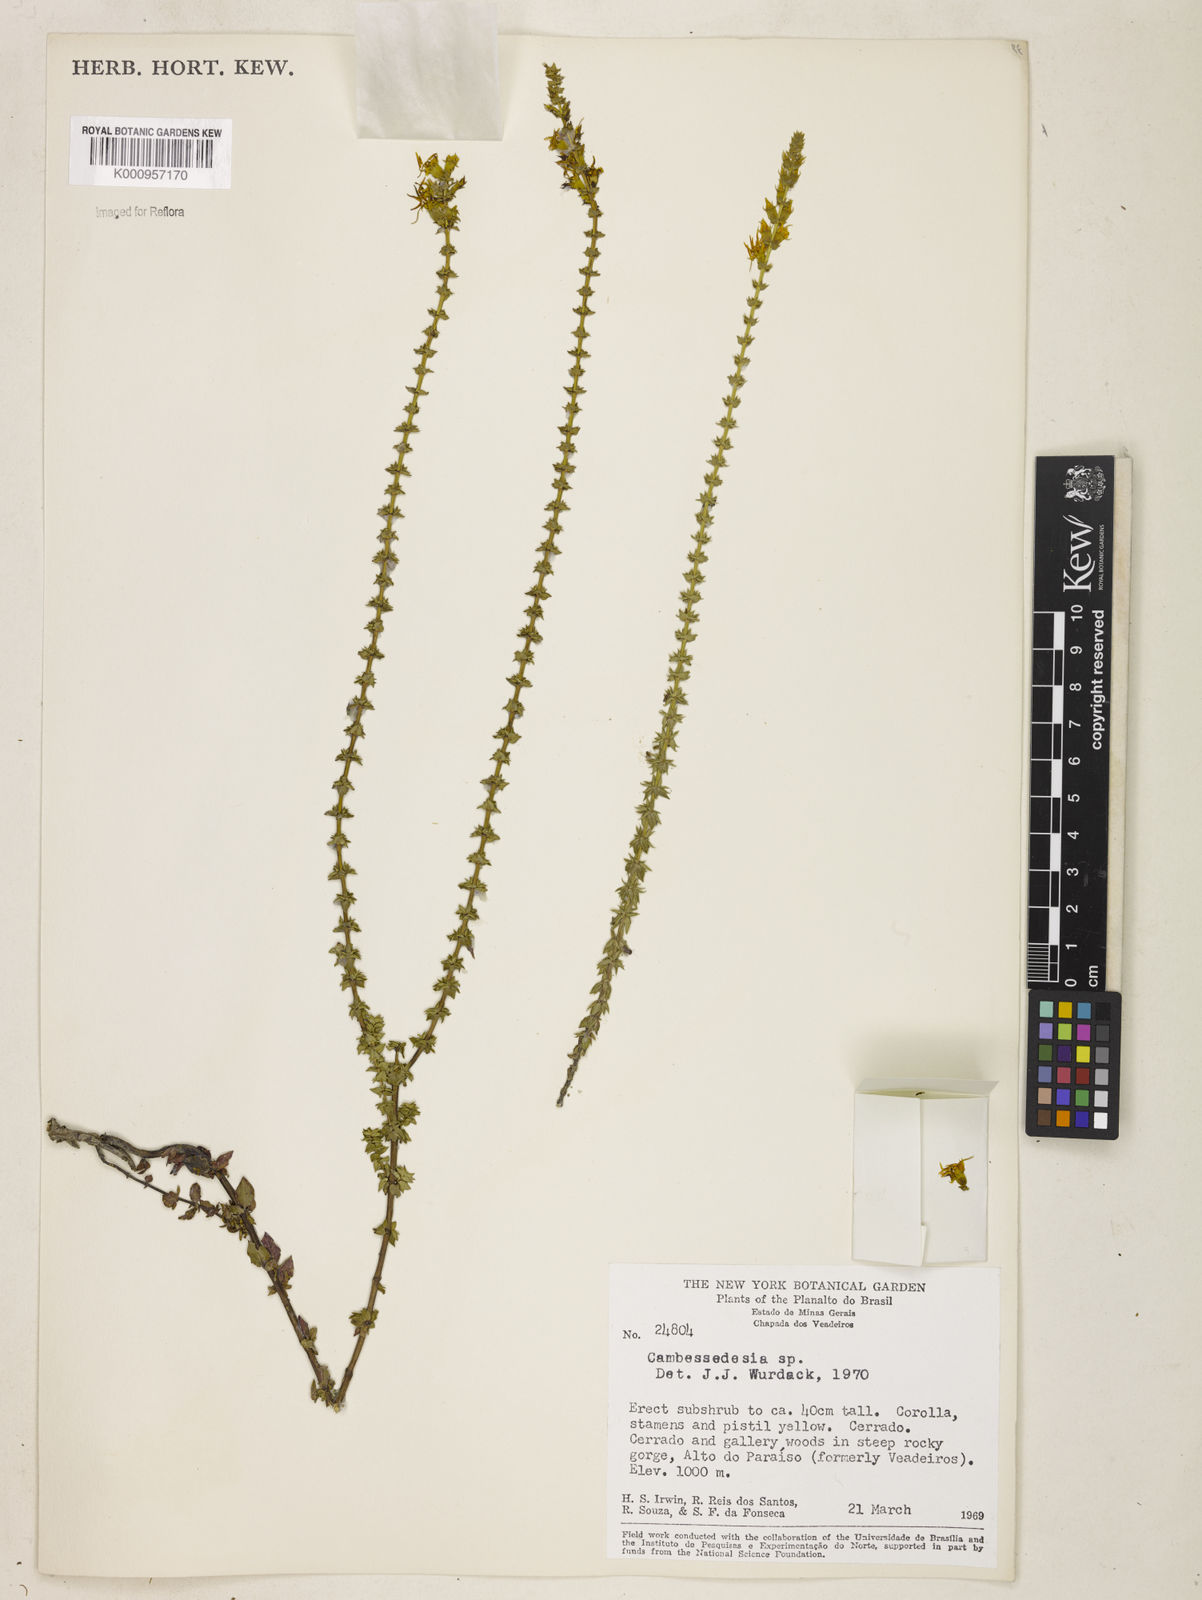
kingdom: Plantae
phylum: Tracheophyta
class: Magnoliopsida
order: Myrtales
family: Melastomataceae
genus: Cambessedesia
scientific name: Cambessedesia espora
